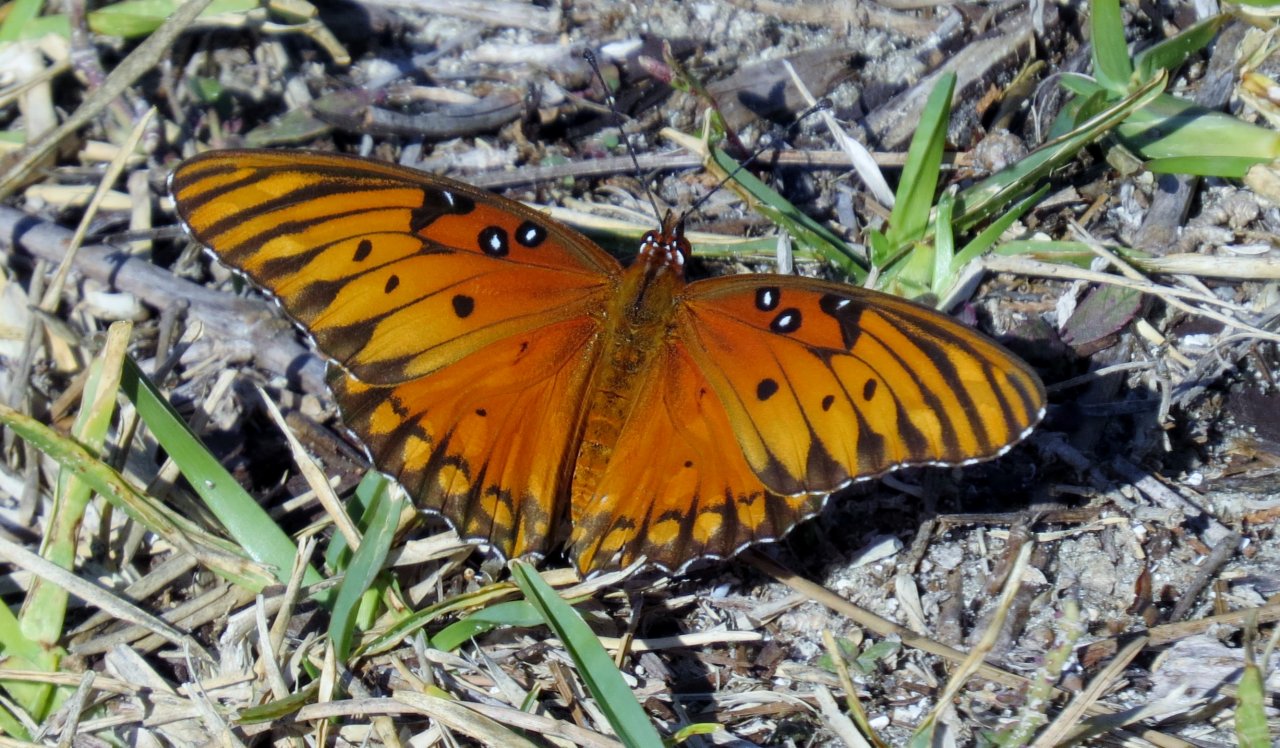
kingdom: Animalia
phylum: Arthropoda
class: Insecta
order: Lepidoptera
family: Nymphalidae
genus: Dione
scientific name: Dione vanillae
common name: Gulf Fritillary
